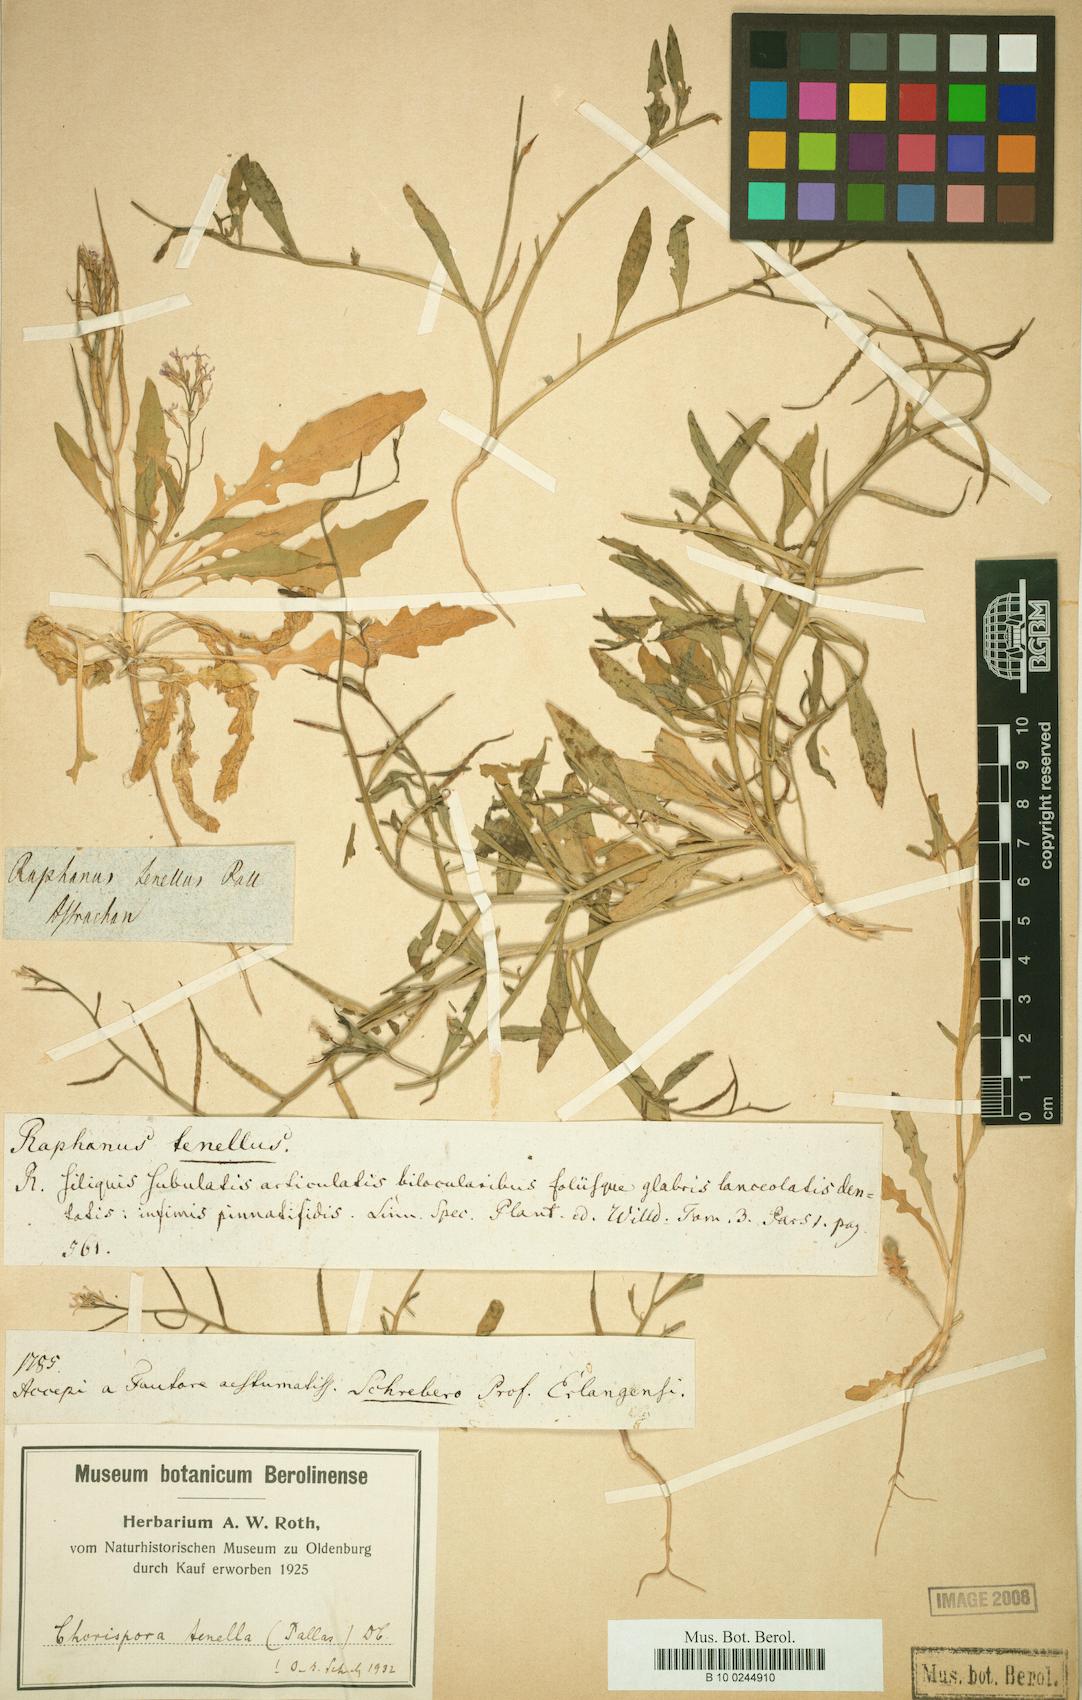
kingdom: Plantae
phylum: Tracheophyta
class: Magnoliopsida
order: Brassicales
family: Brassicaceae
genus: Christolea
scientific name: Christolea
